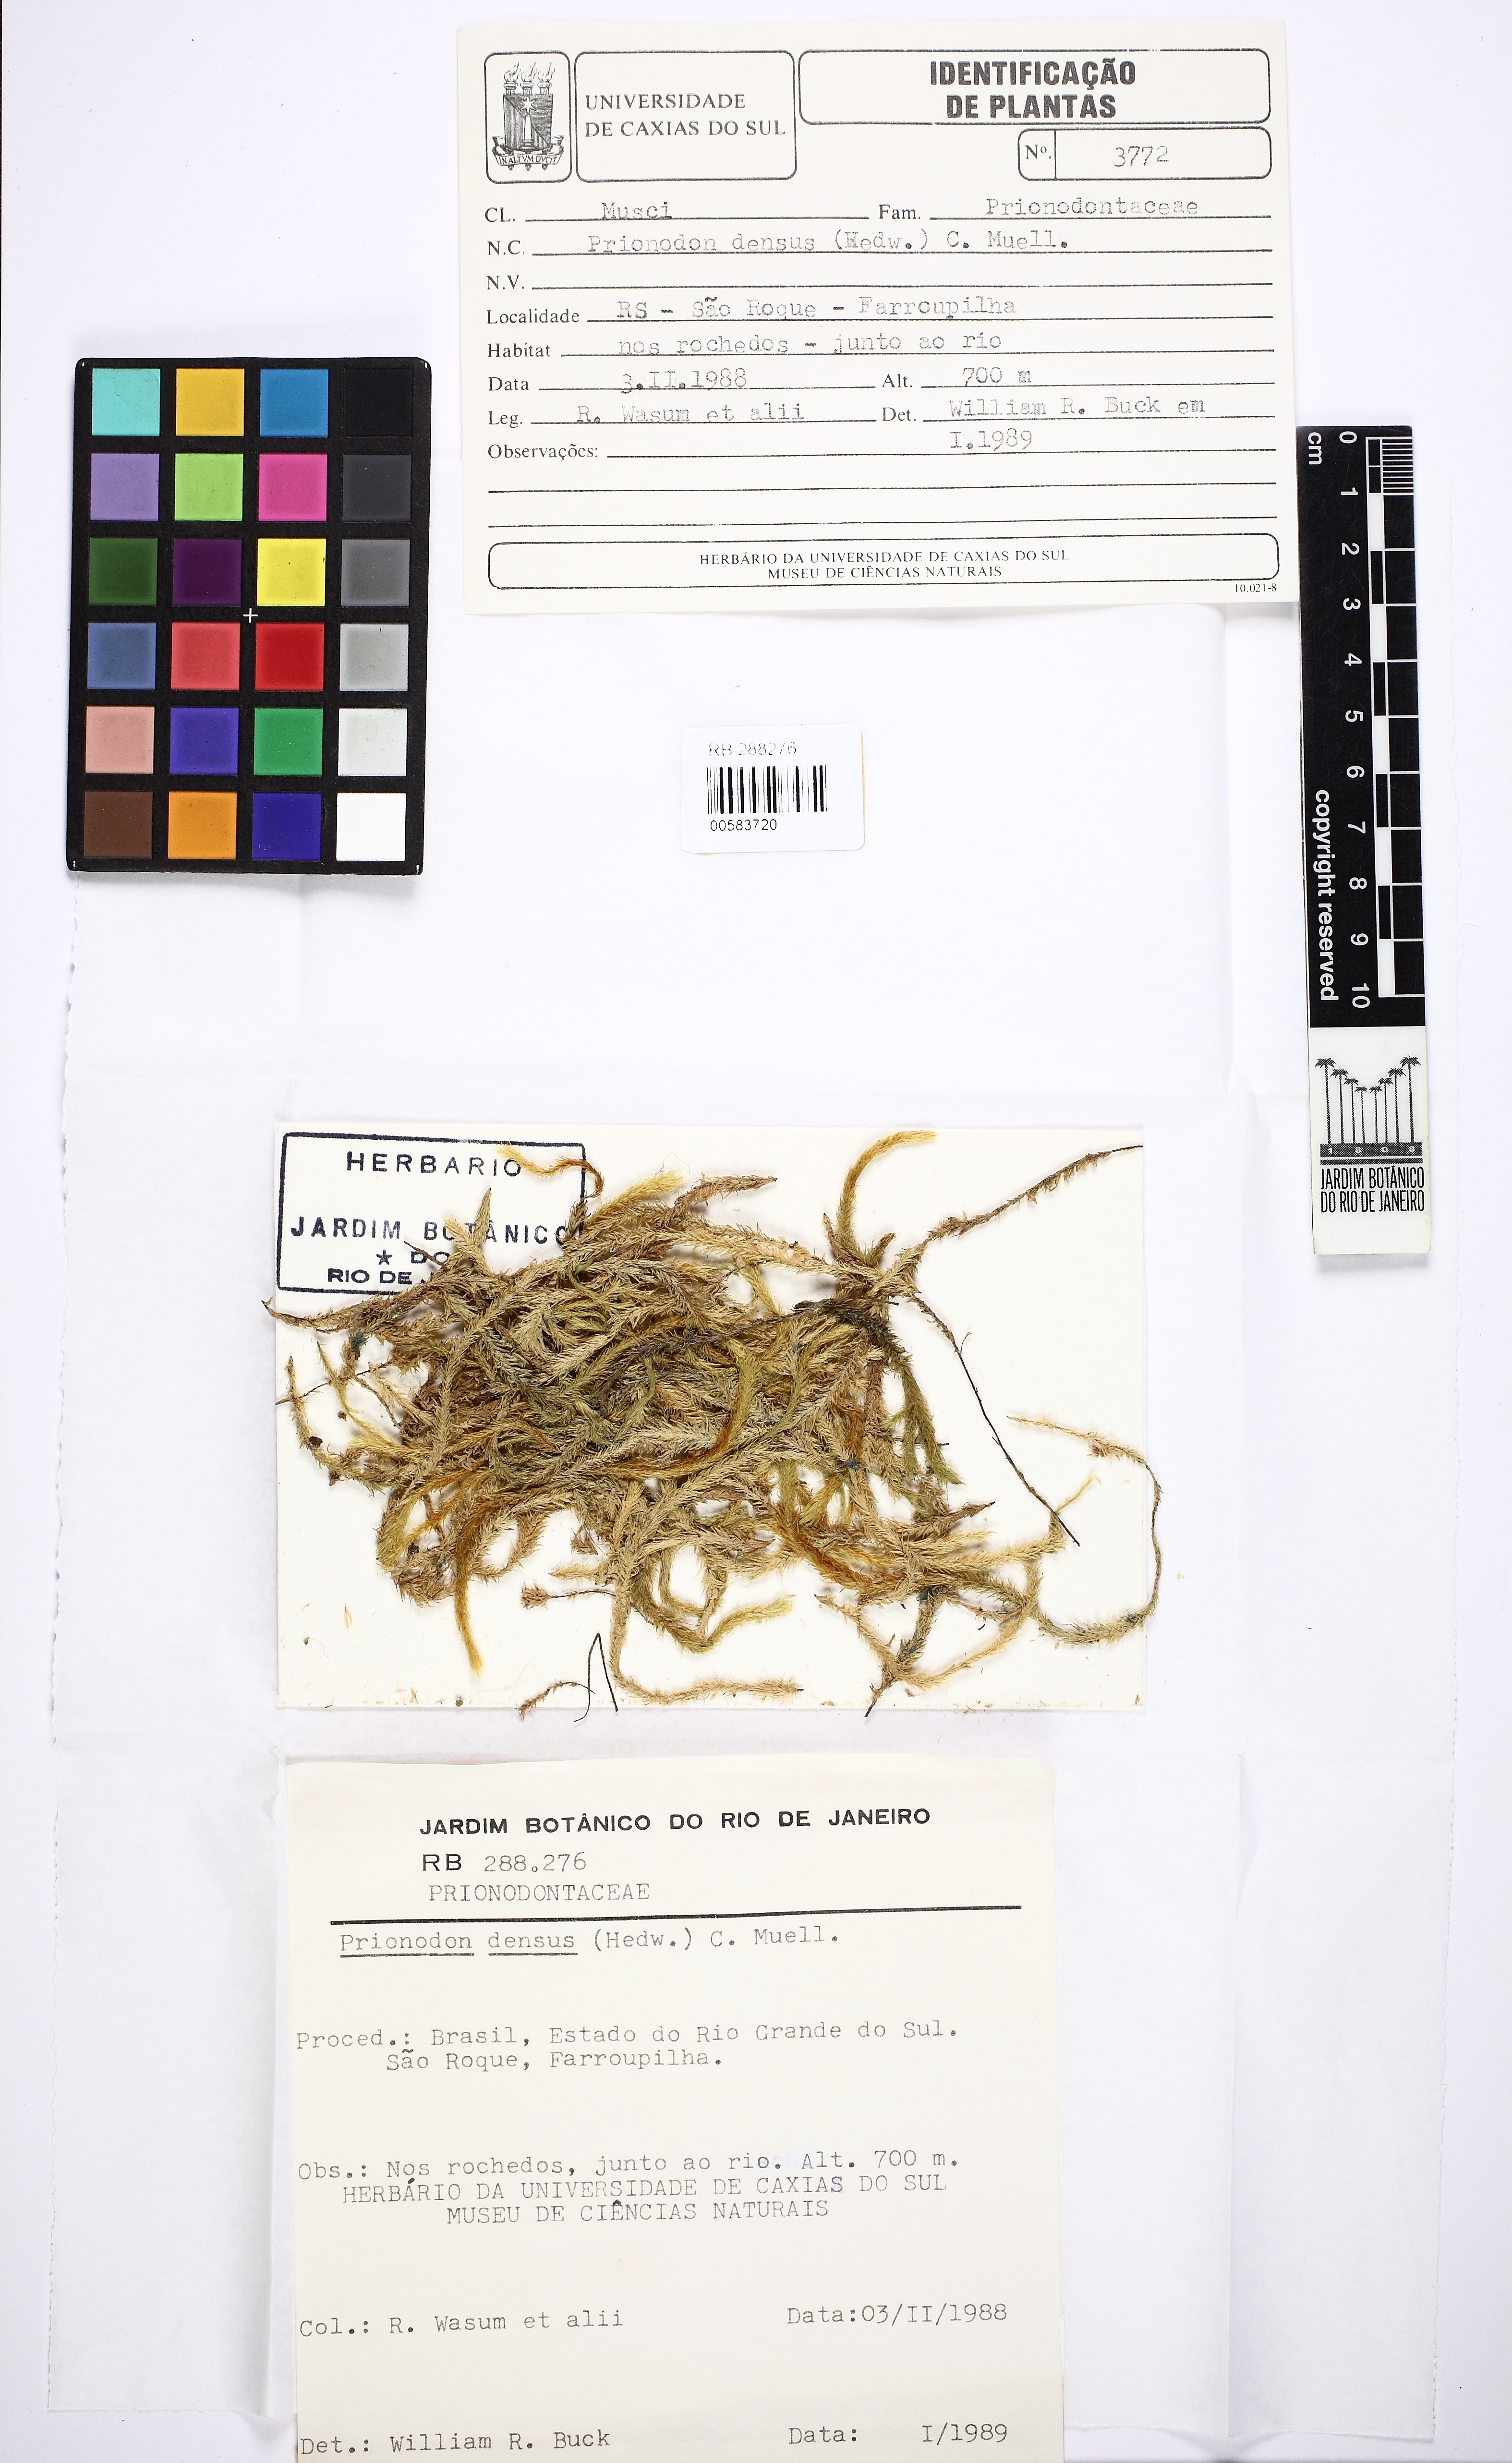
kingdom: Plantae
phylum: Bryophyta
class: Bryopsida
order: Hypnales
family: Prionodontaceae
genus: Prionodon
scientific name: Prionodon densus
